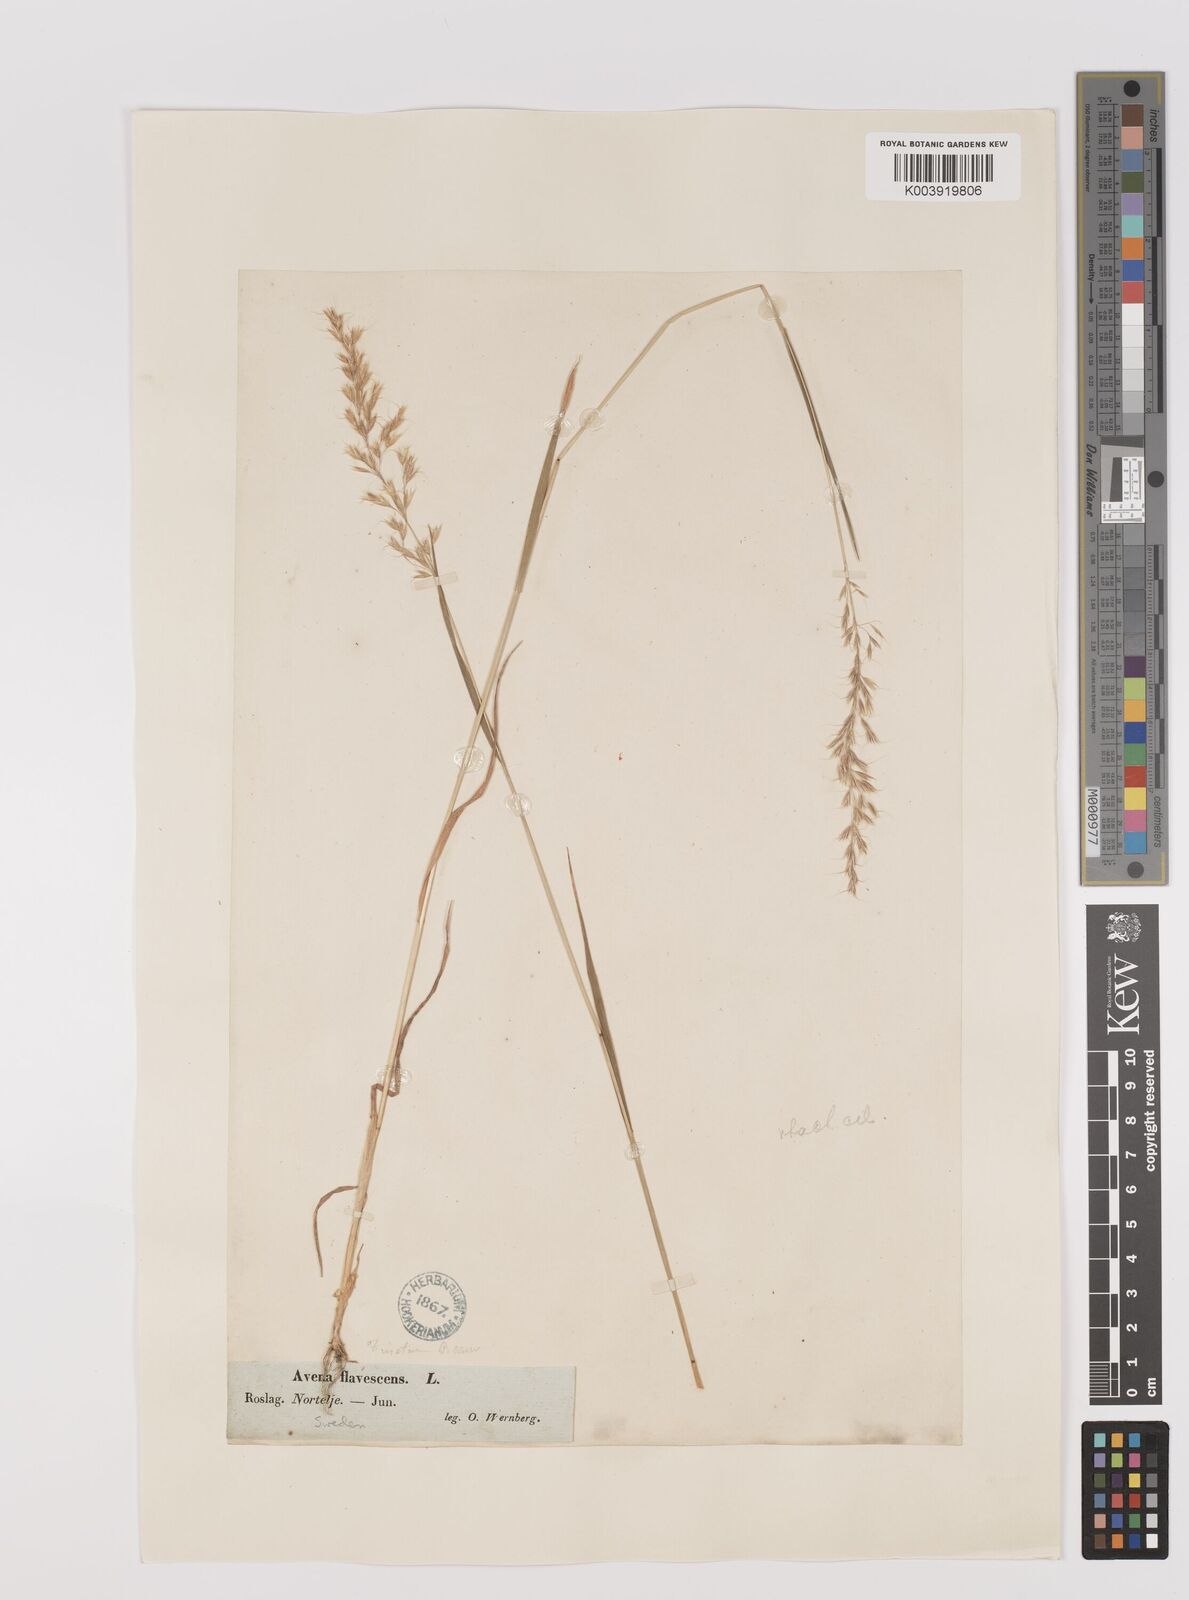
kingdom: Plantae
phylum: Tracheophyta
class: Liliopsida
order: Poales
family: Poaceae
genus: Trisetum
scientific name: Trisetum flavescens
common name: Yellow oat-grass
